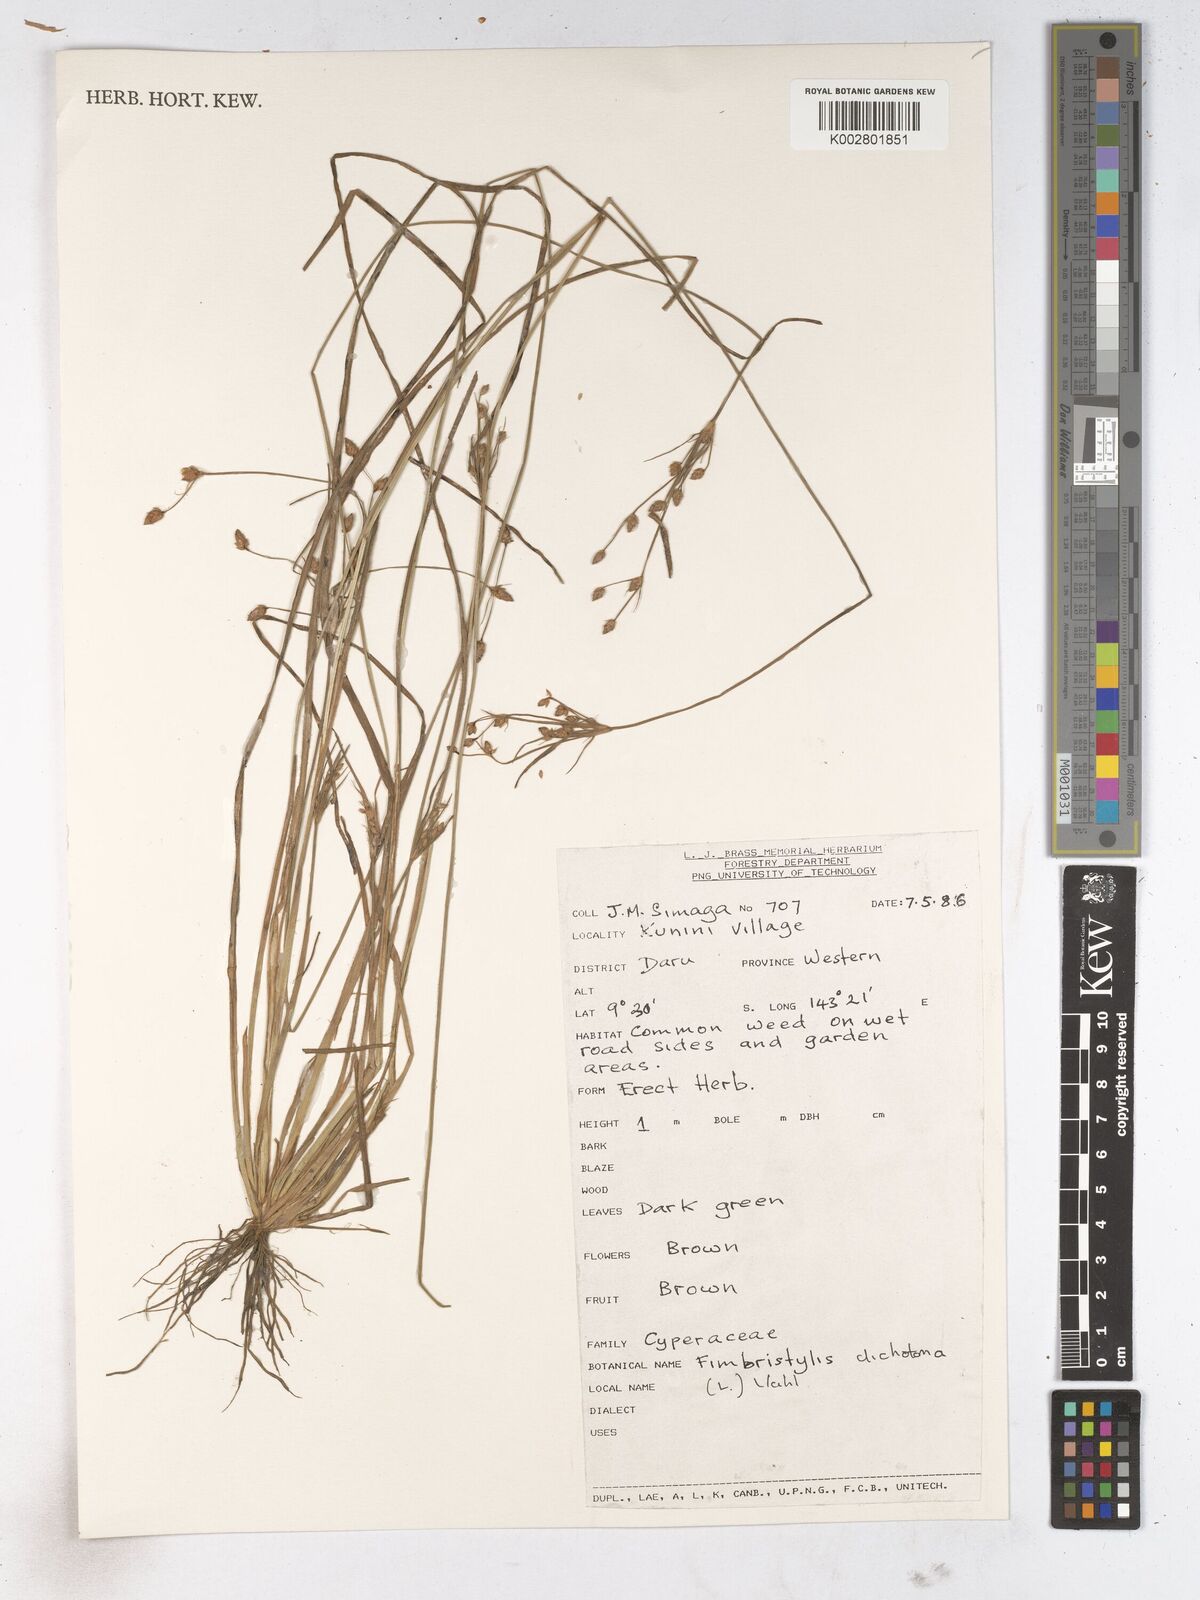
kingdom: Plantae
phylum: Tracheophyta
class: Liliopsida
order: Poales
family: Cyperaceae
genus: Fimbristylis
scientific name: Fimbristylis dichotoma
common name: Forked fimbry
